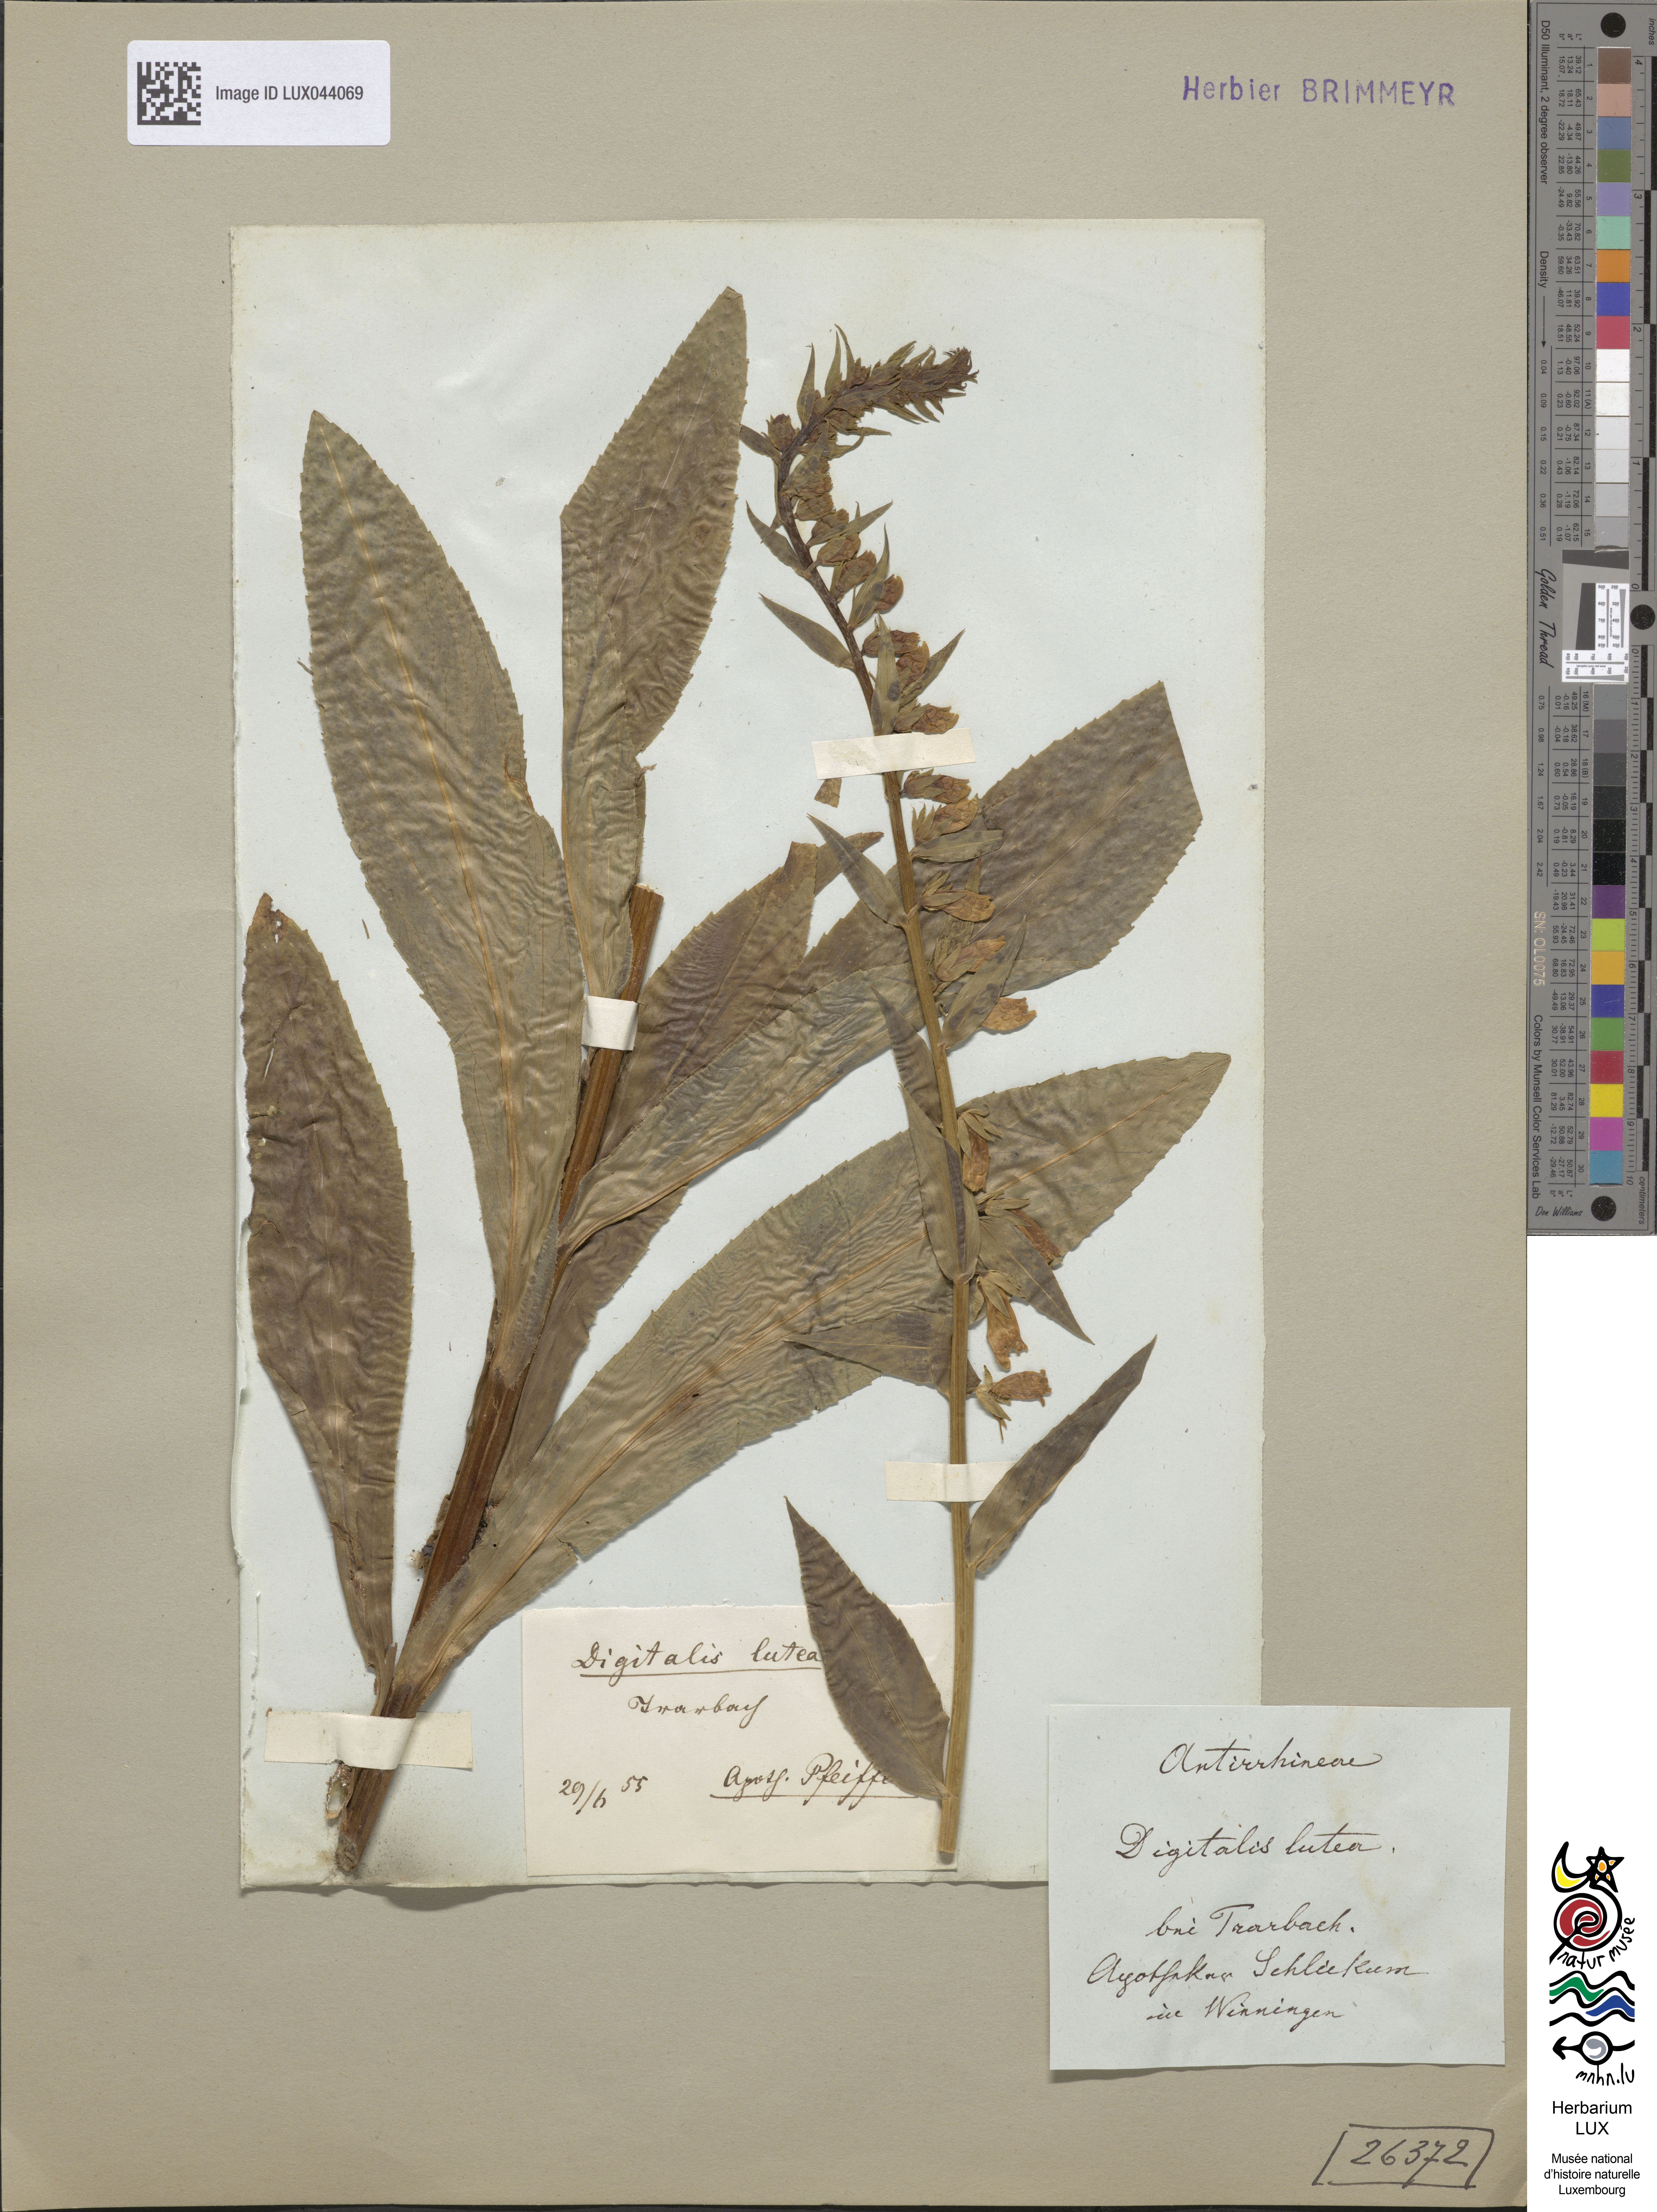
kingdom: Plantae
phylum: Tracheophyta
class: Magnoliopsida
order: Lamiales
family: Plantaginaceae
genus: Digitalis
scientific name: Digitalis lutea
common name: Straw foxglove
